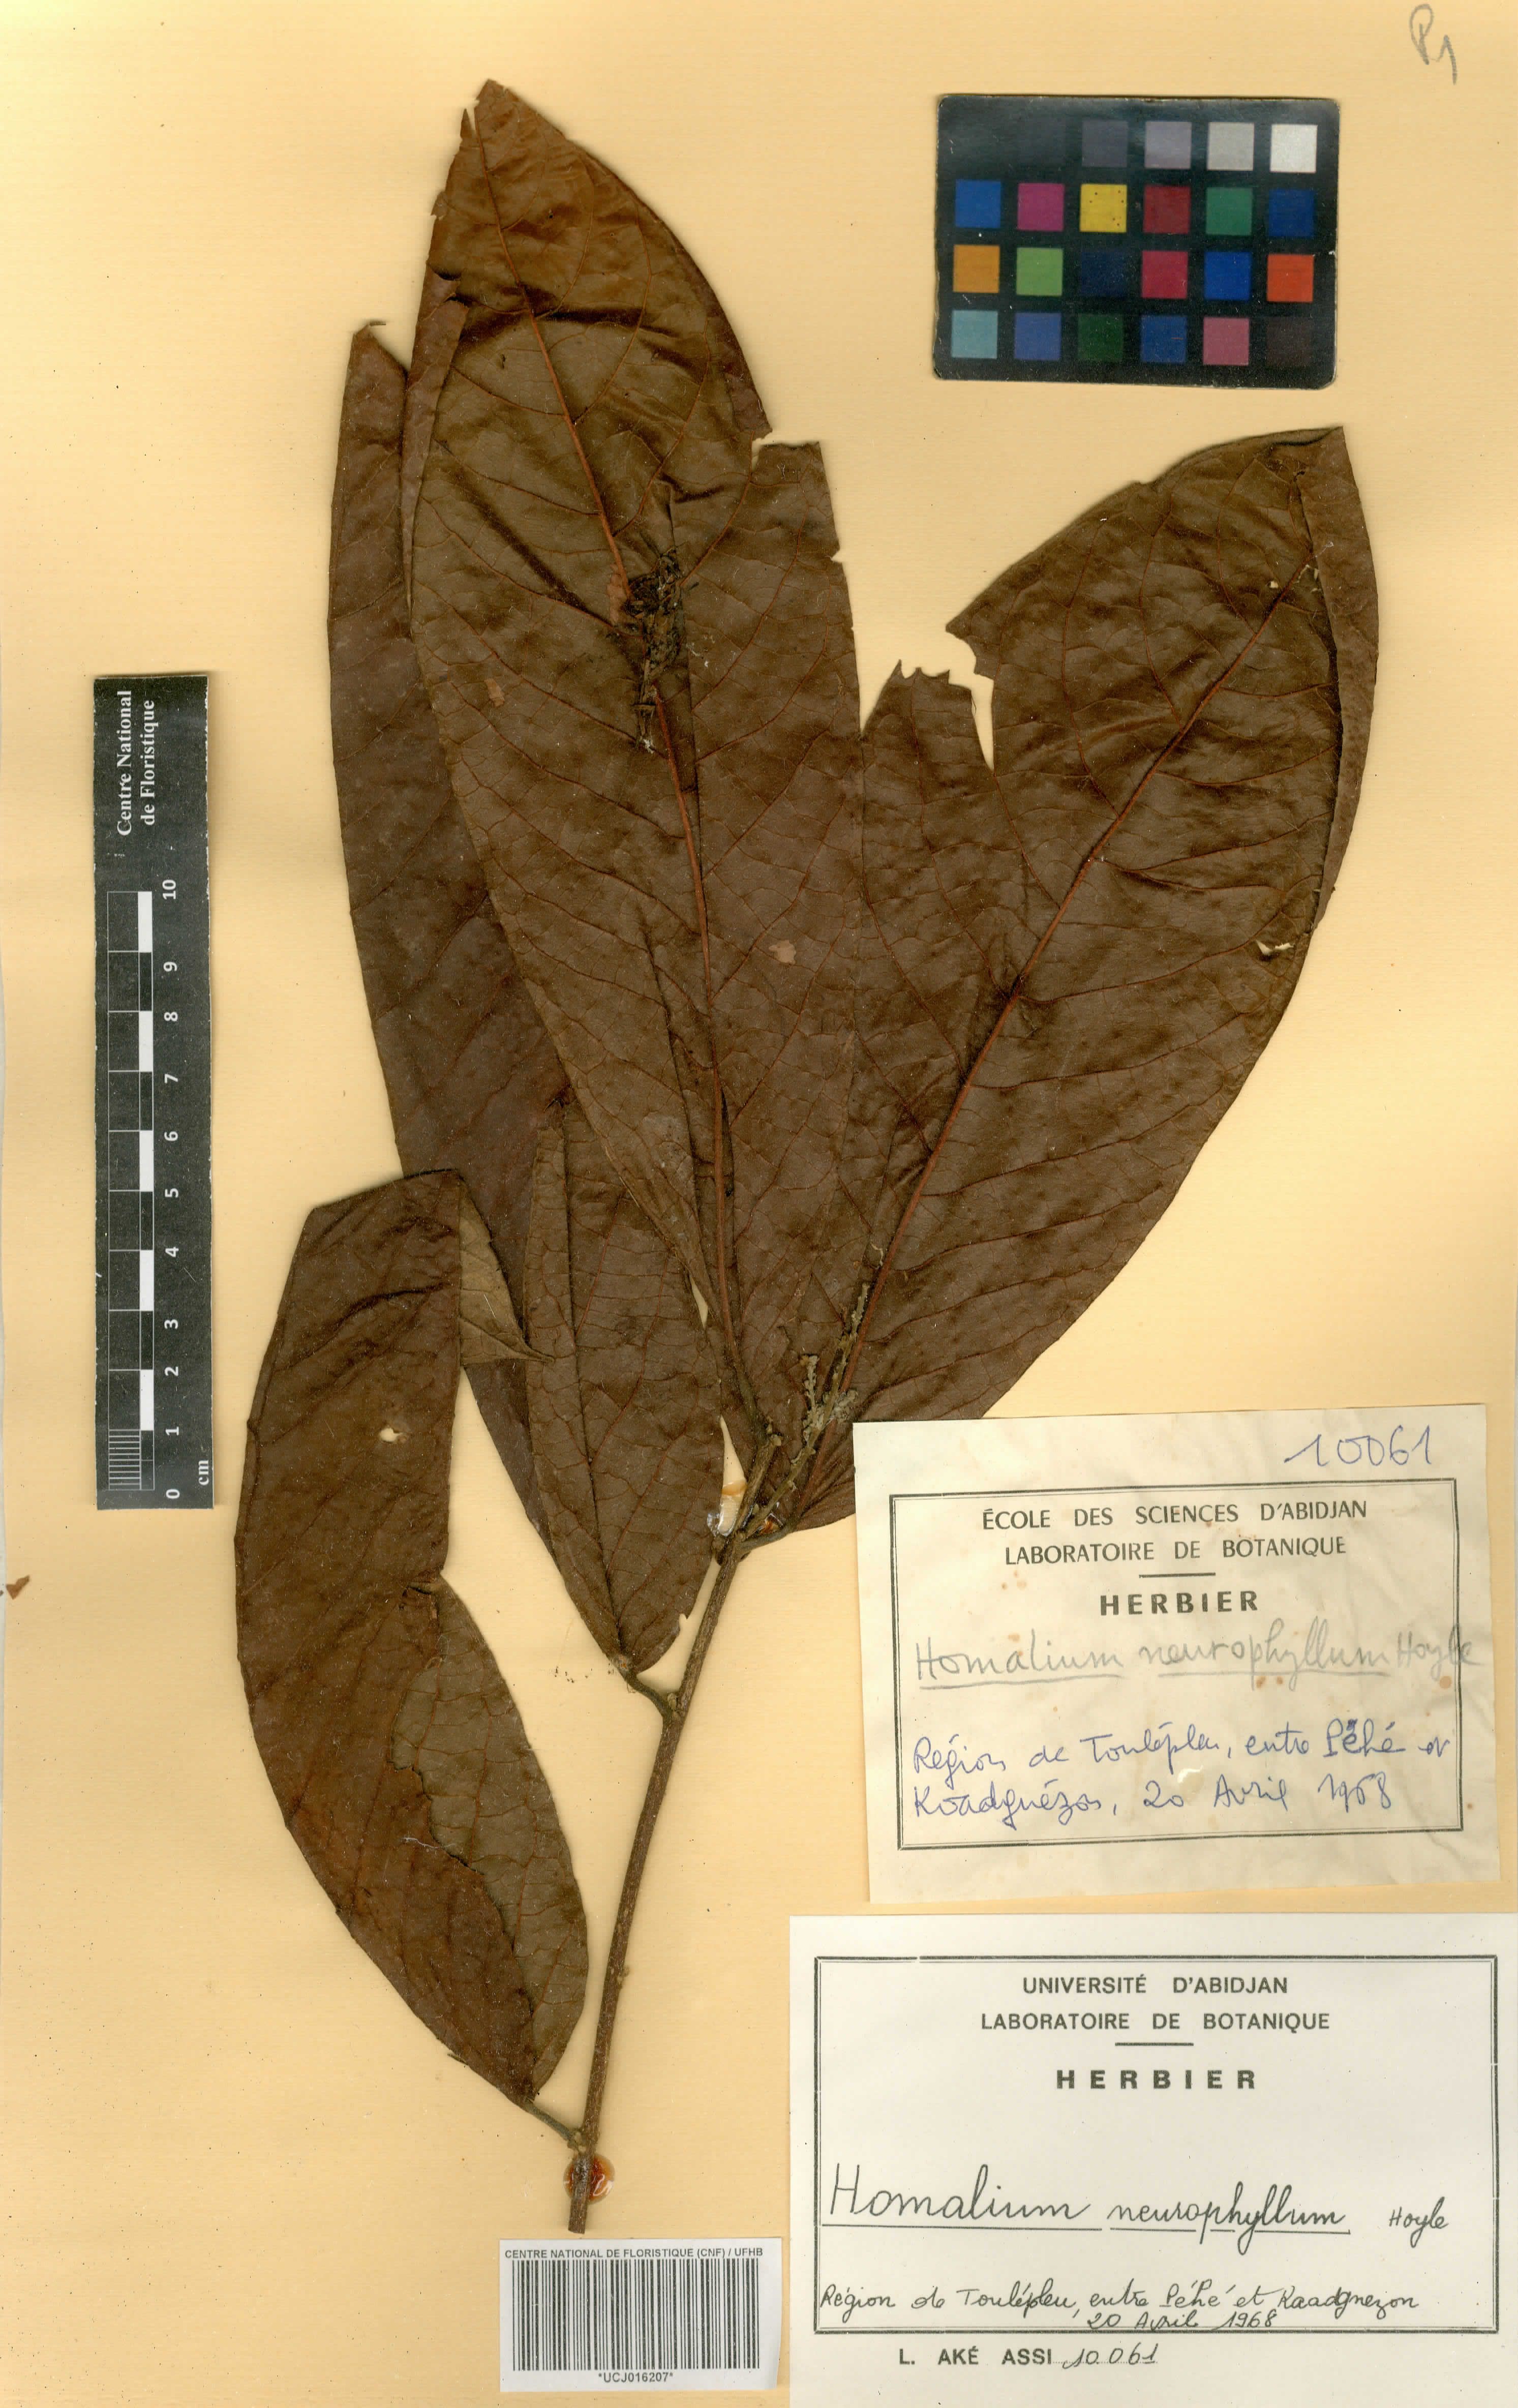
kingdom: Plantae
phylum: Tracheophyta
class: Magnoliopsida
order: Malpighiales
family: Salicaceae
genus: Homalium
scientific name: Homalium stipulaceum
